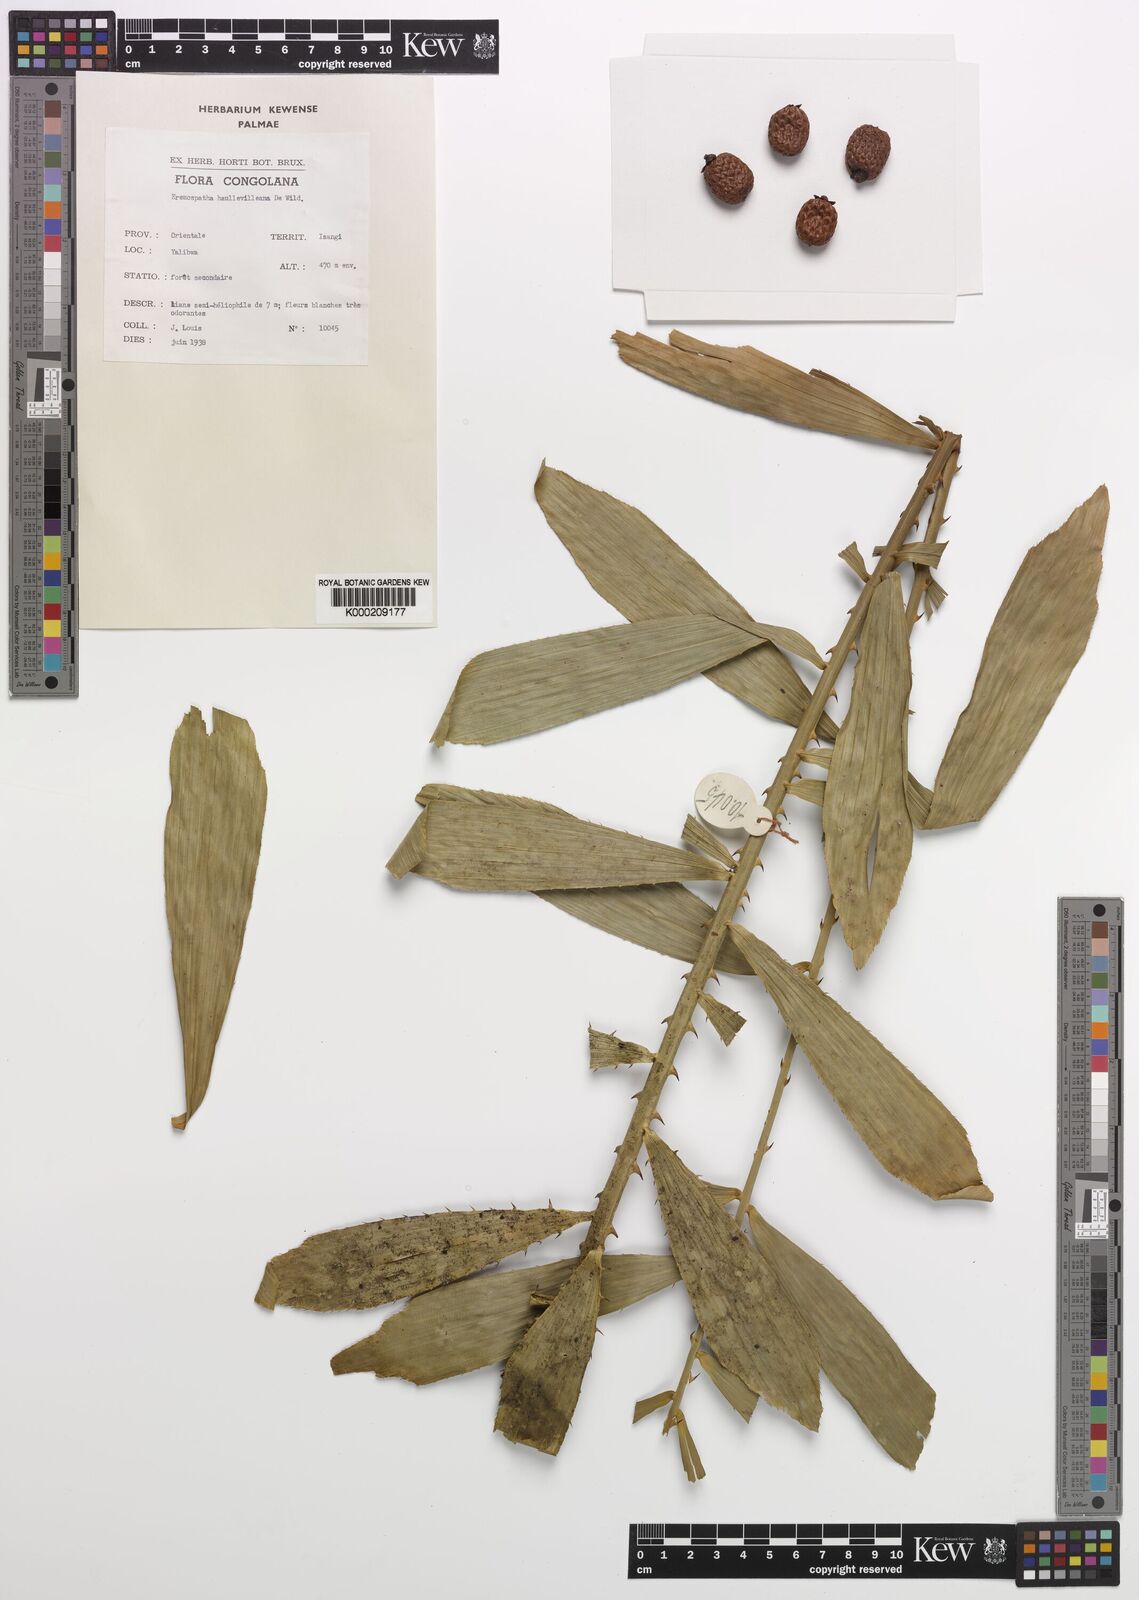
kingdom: Plantae
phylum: Tracheophyta
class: Liliopsida
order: Arecales
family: Arecaceae
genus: Eremospatha
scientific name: Eremospatha haullevilleana
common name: Rattan
